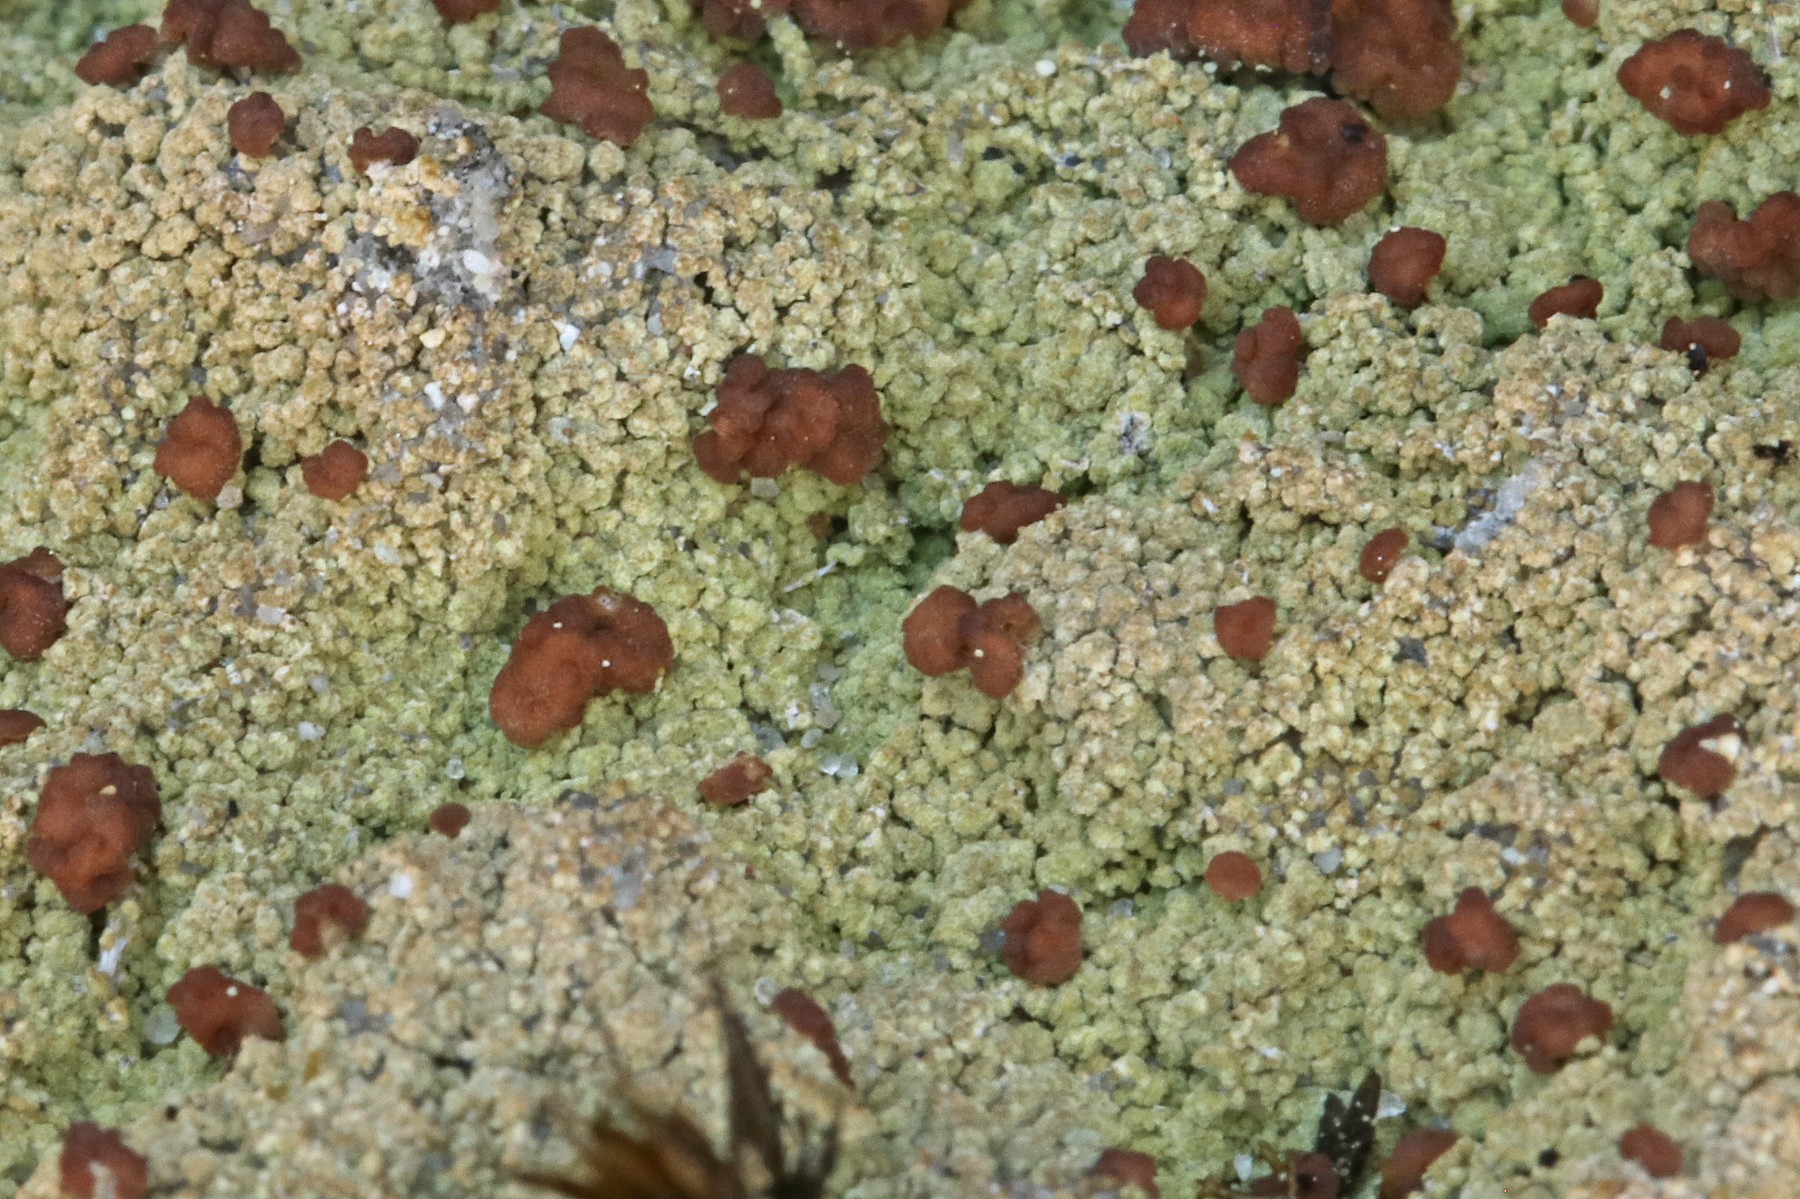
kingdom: Fungi
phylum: Ascomycota
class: Lecanoromycetes
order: Baeomycetales
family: Baeomycetaceae
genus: Baeomyces
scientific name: Baeomyces rufus
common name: rødbrun svampelav
